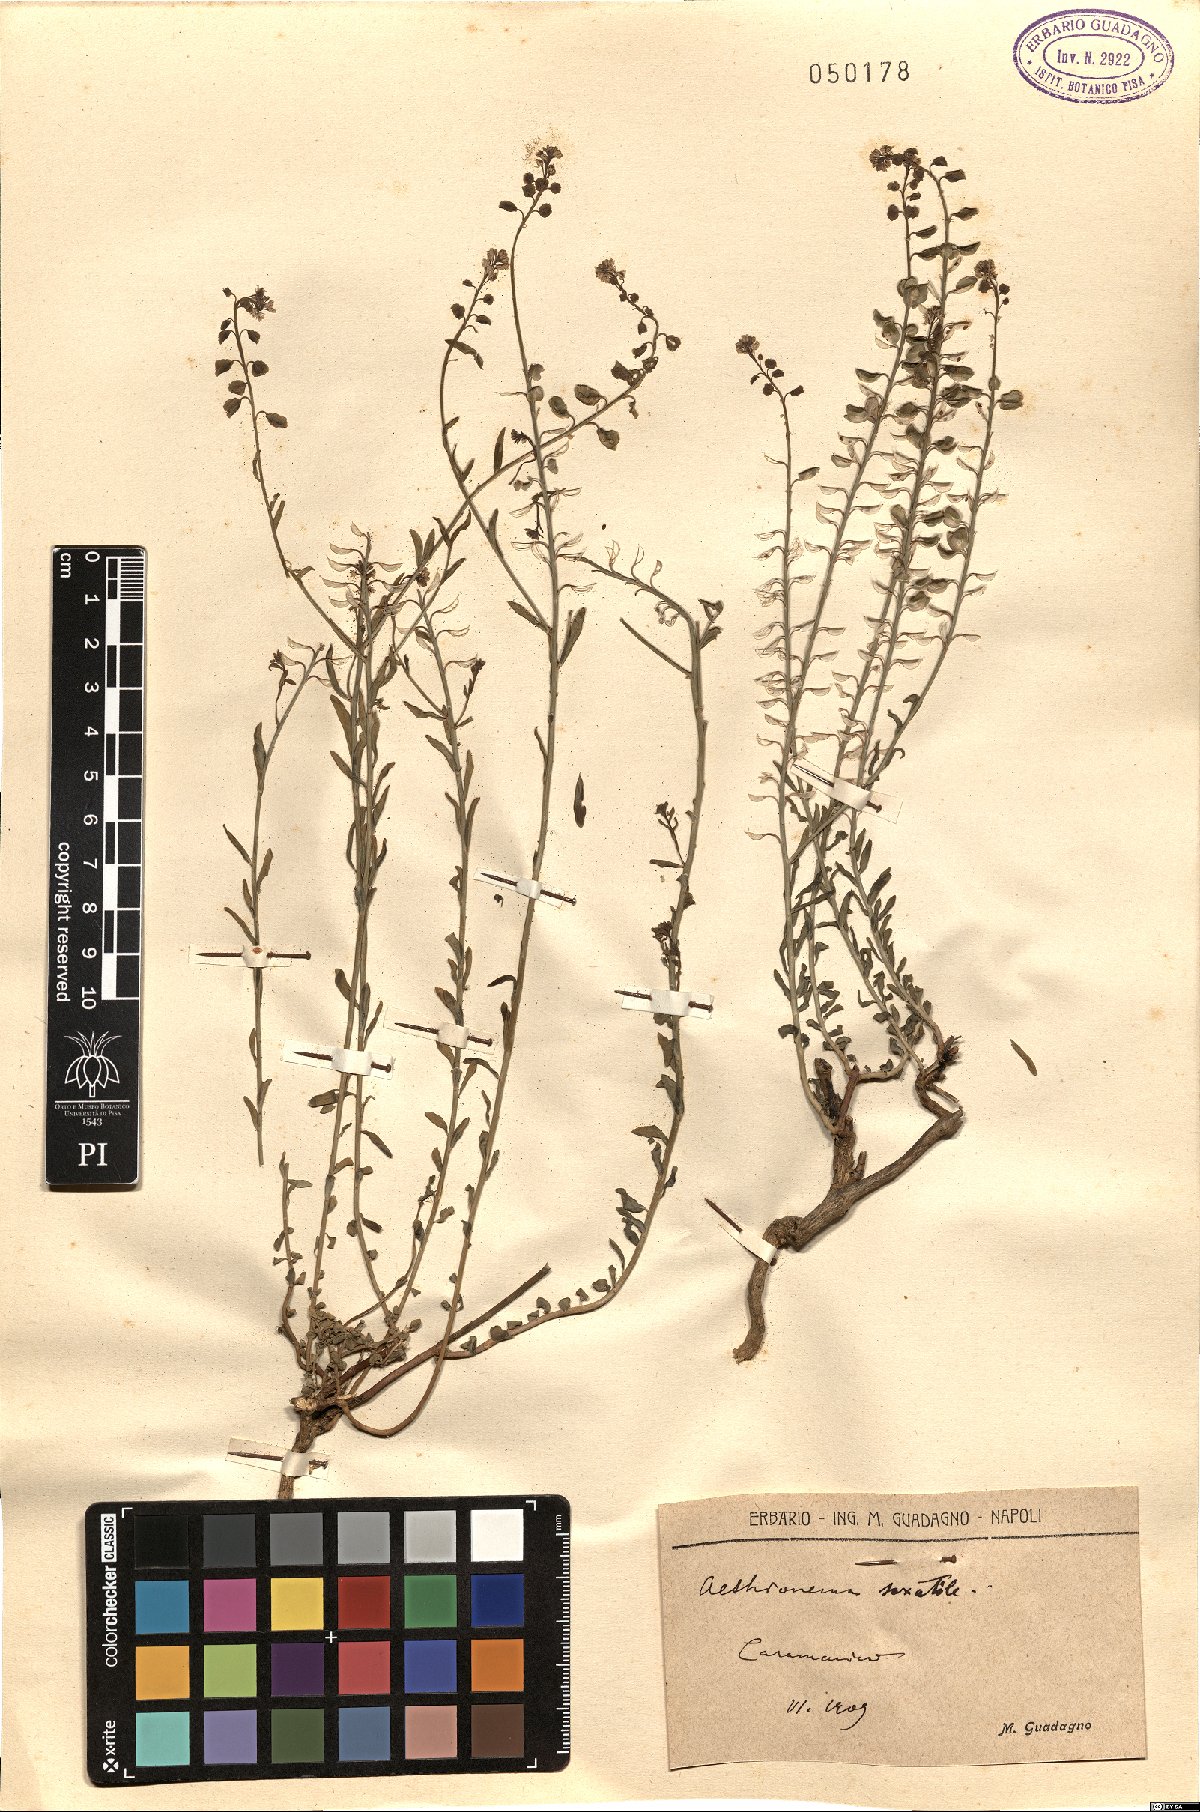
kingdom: Plantae
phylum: Tracheophyta
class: Magnoliopsida
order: Brassicales
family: Brassicaceae
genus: Aethionema
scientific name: Aethionema saxatile
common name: Burnt candytuft
